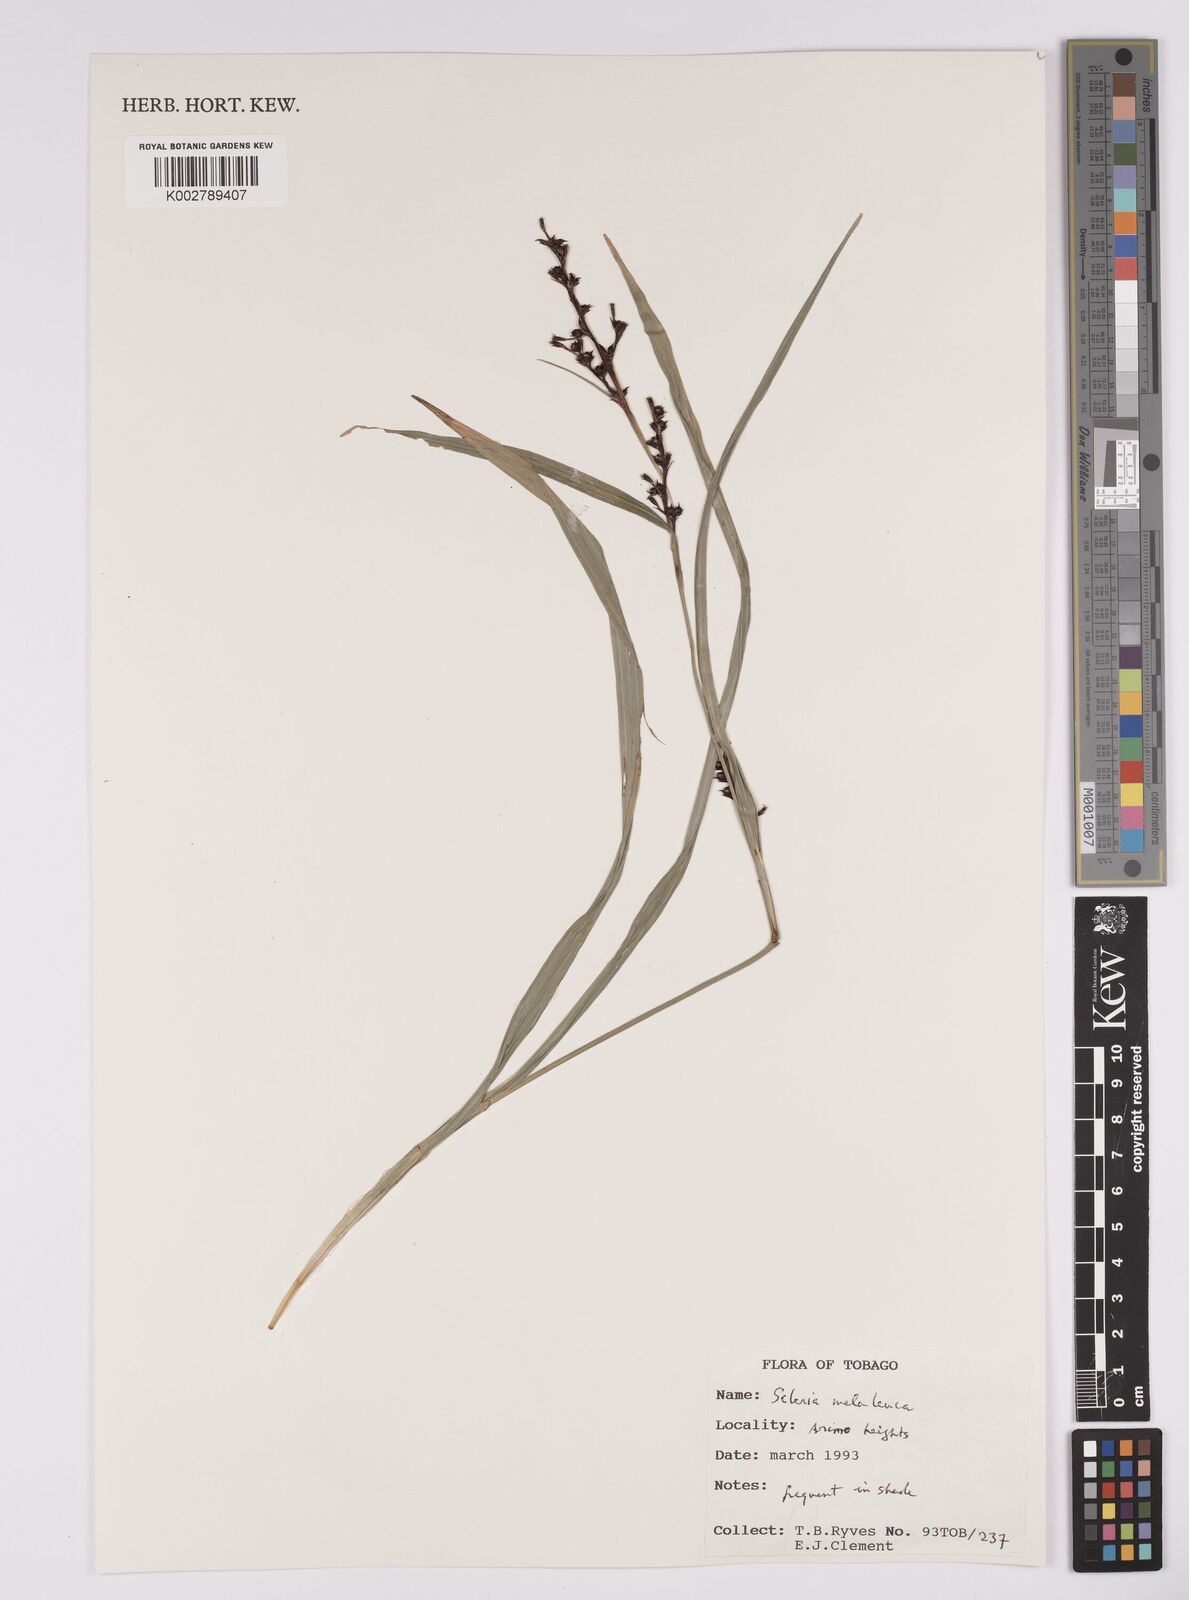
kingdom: Plantae
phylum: Tracheophyta
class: Liliopsida
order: Poales
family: Cyperaceae
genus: Scleria
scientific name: Scleria gaertneri
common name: Cortadera blanca
